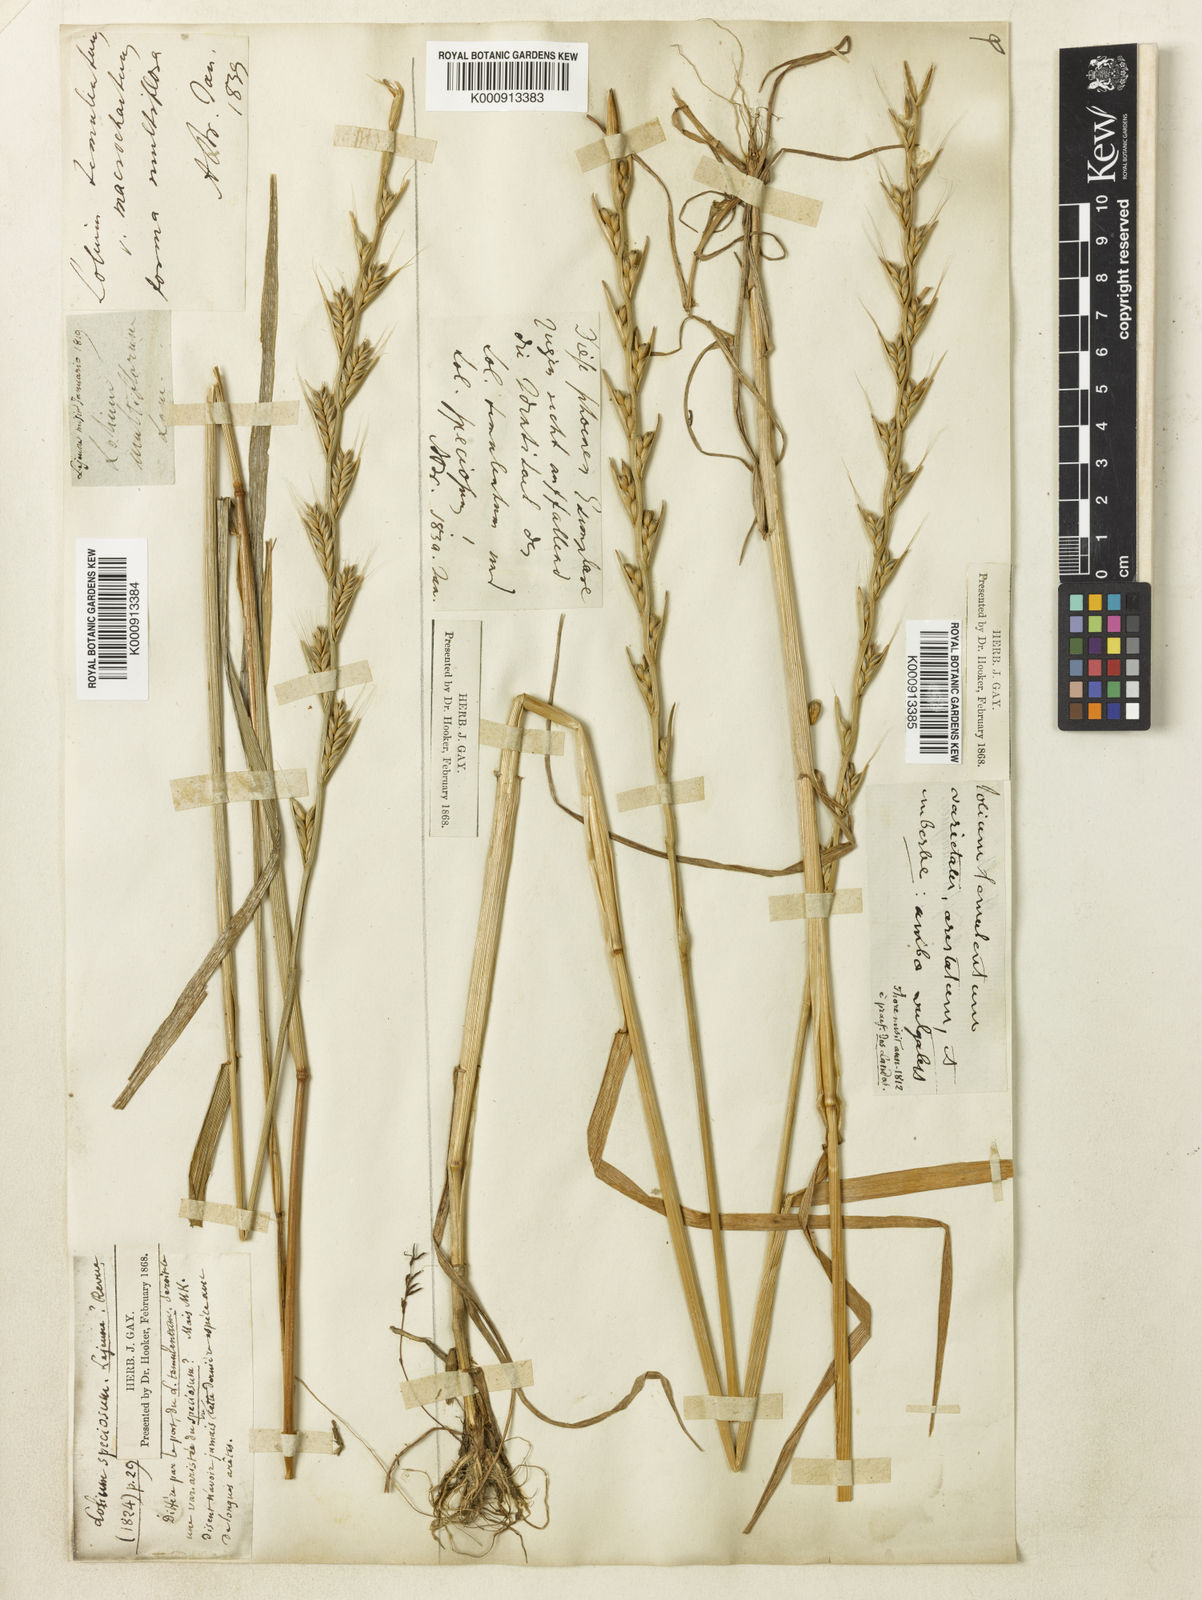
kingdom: Plantae
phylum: Tracheophyta
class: Liliopsida
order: Poales
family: Poaceae
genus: Lolium
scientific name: Lolium temulentum
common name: Darnel
